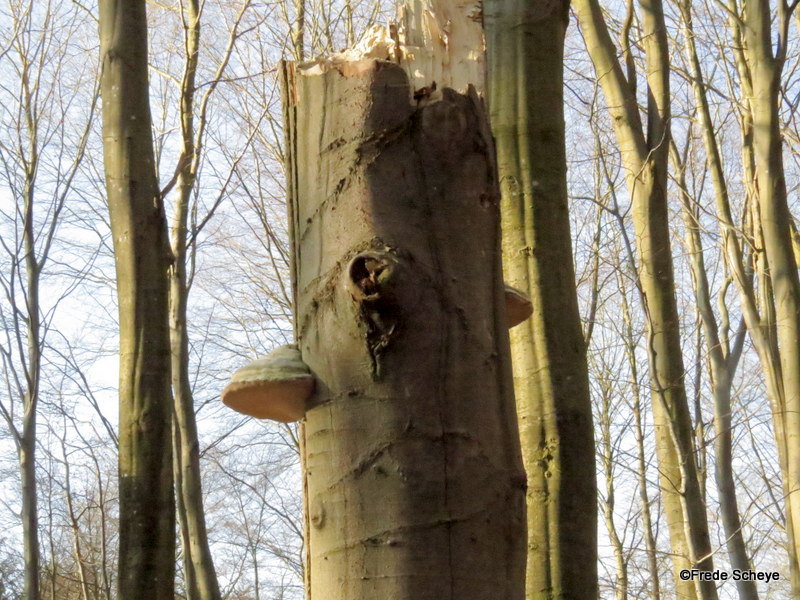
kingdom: Fungi
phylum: Basidiomycota
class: Agaricomycetes
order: Polyporales
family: Polyporaceae
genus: Fomes
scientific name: Fomes fomentarius
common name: tøndersvamp
